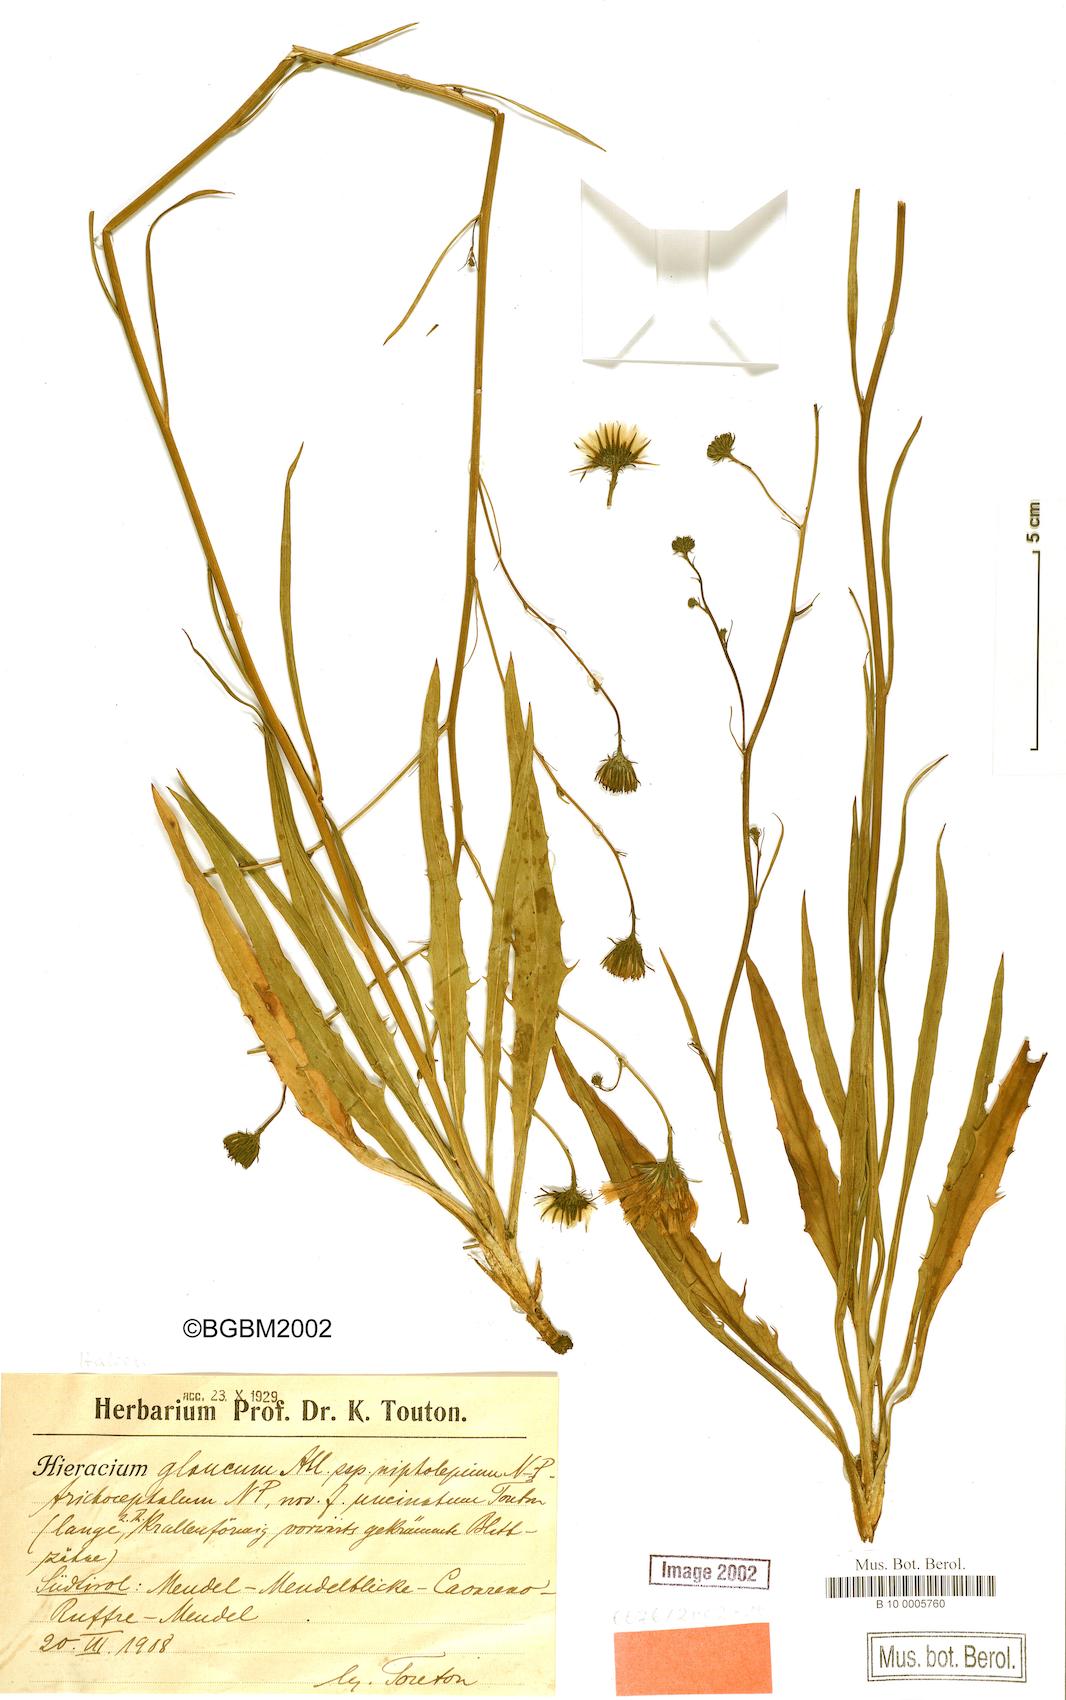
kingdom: Plantae
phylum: Tracheophyta
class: Magnoliopsida
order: Asterales
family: Asteraceae
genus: Hieracium
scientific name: Hieracium glaucum
